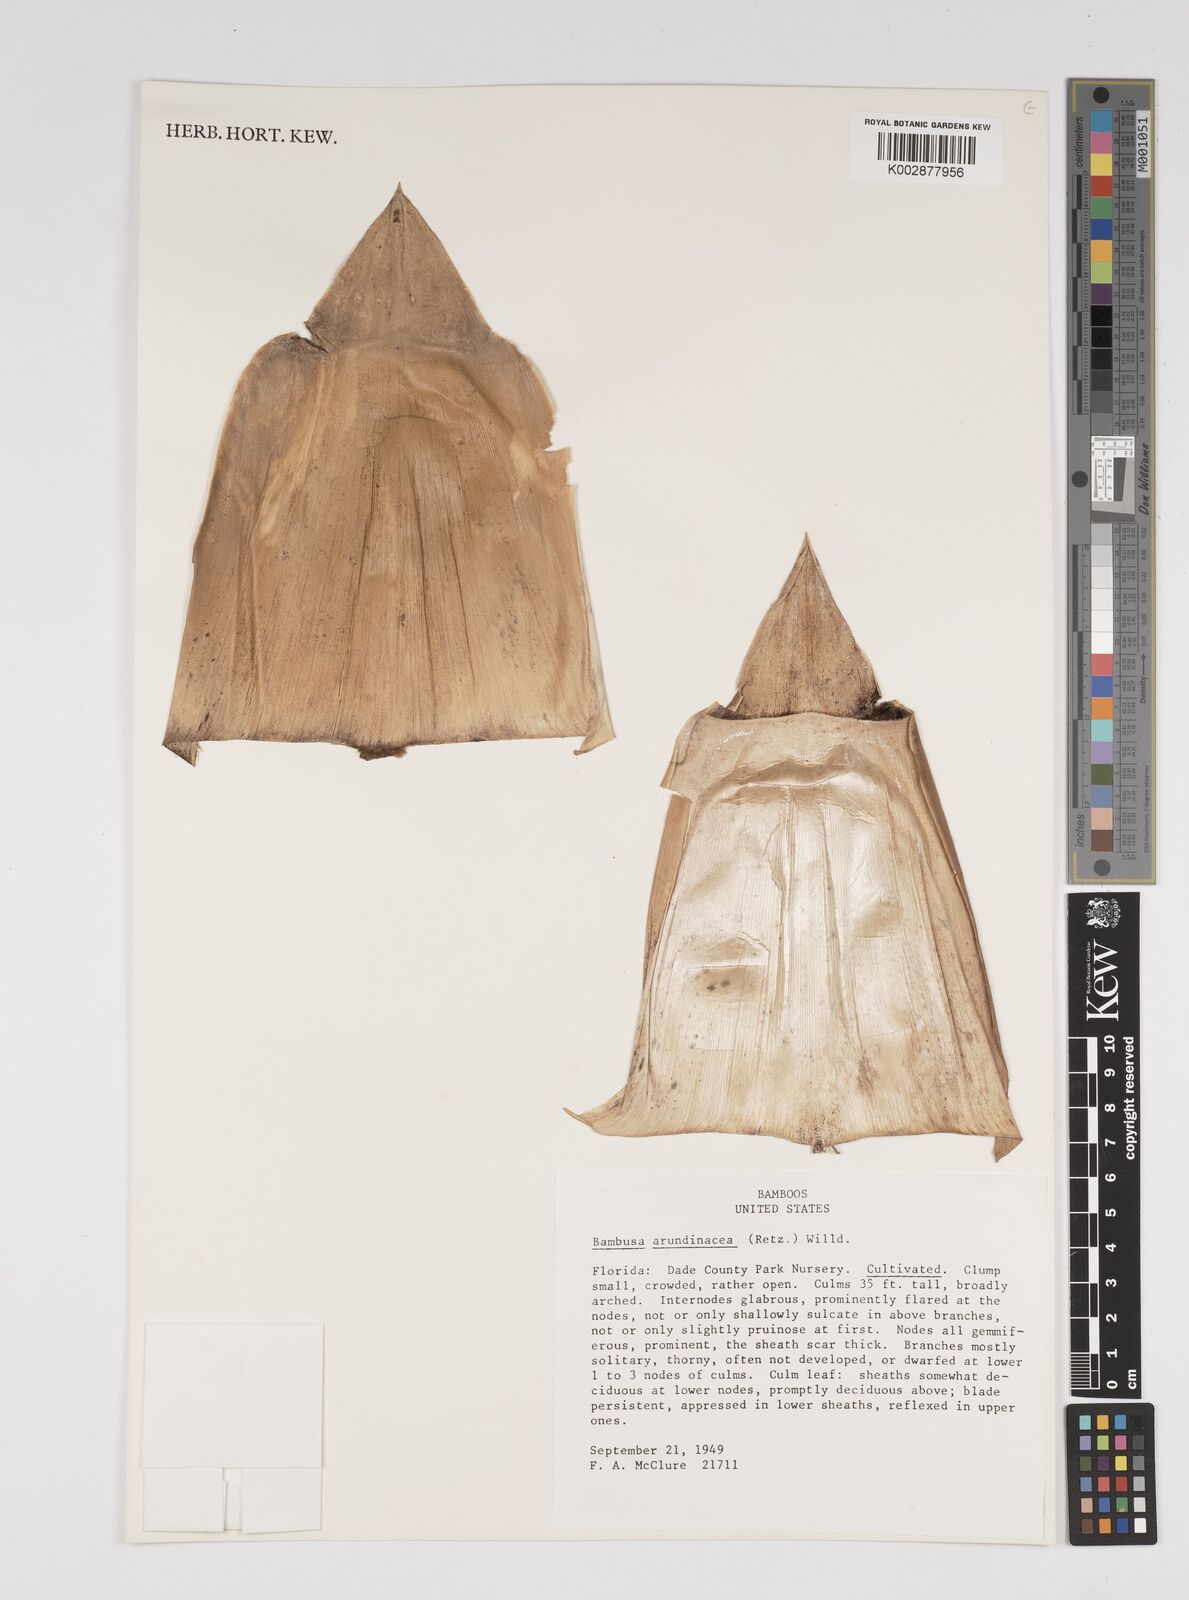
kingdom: Plantae
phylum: Tracheophyta
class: Liliopsida
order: Poales
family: Poaceae
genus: Bambusa
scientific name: Bambusa bambos
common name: Indian thorny bamboo
